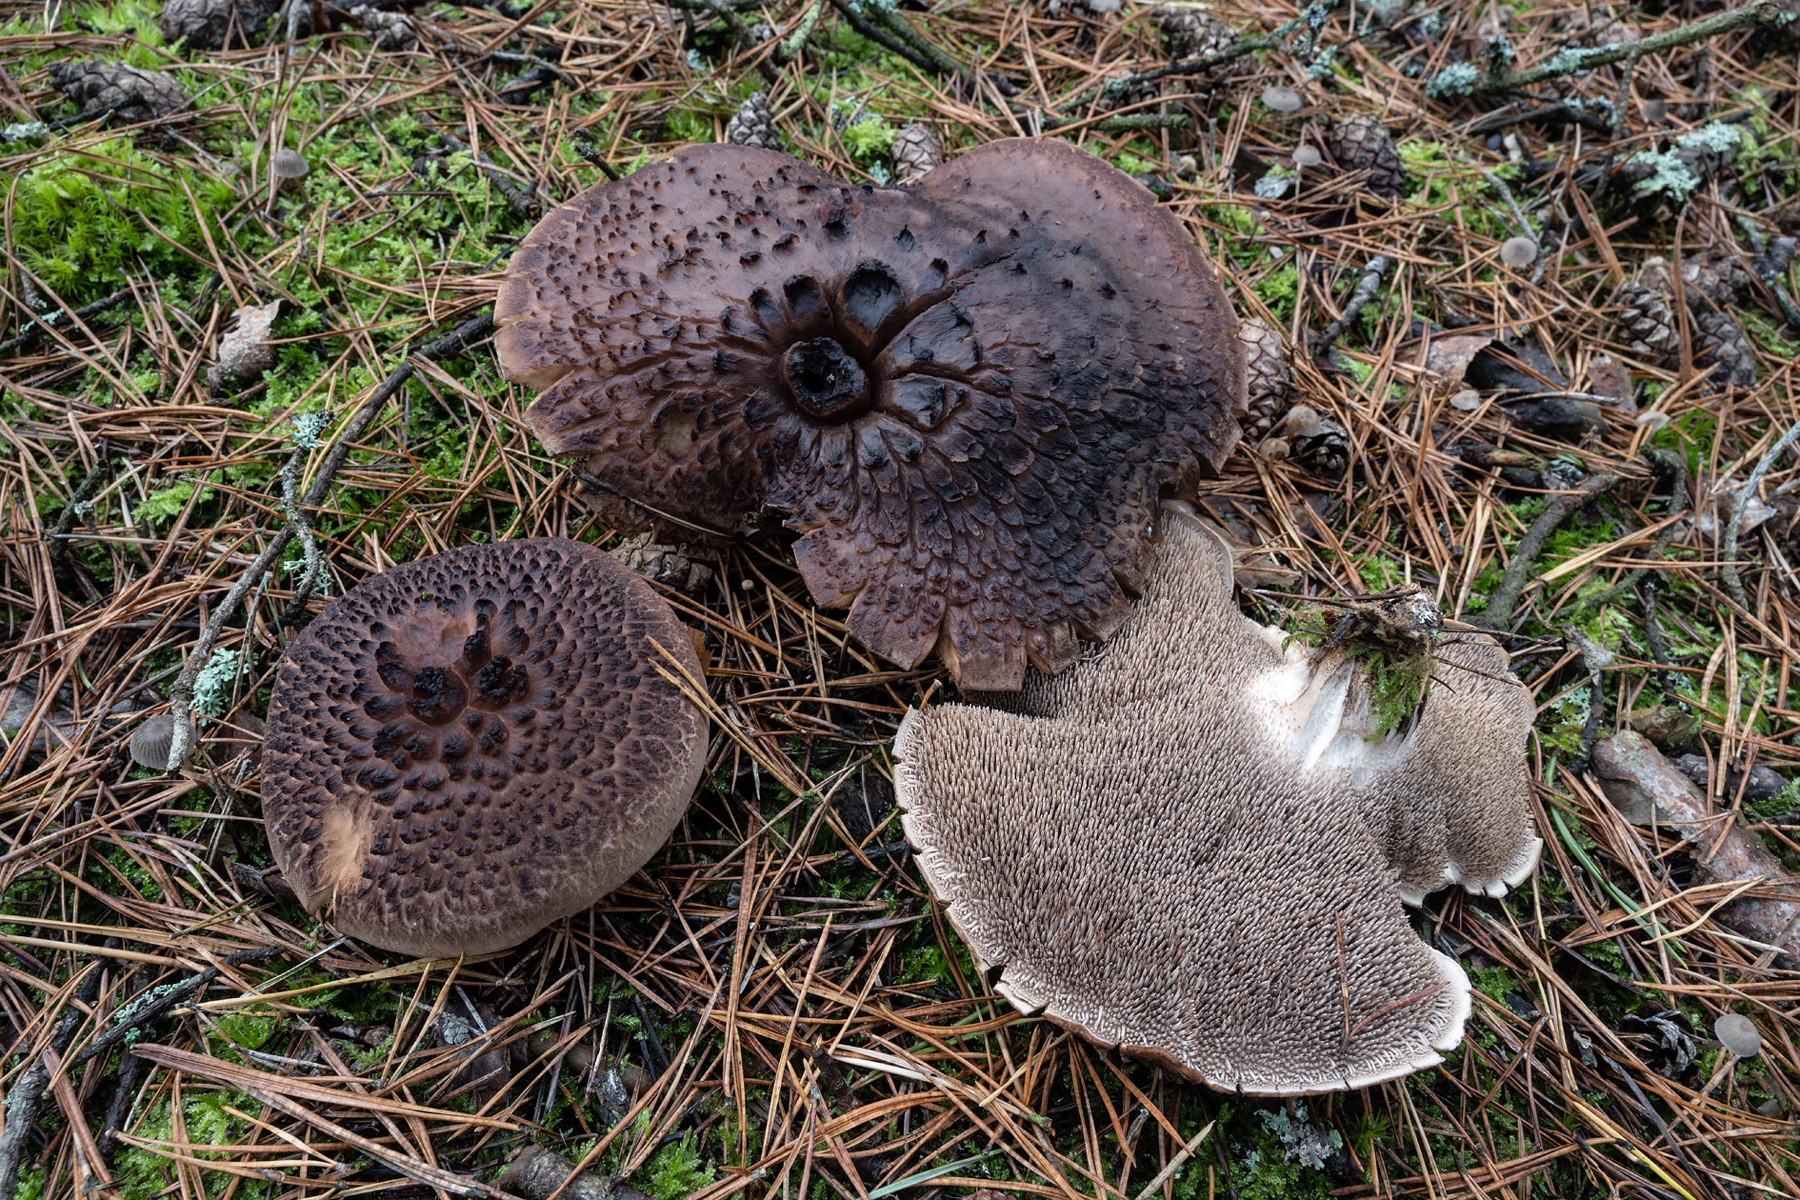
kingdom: Fungi
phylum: Basidiomycota
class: Agaricomycetes
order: Thelephorales
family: Bankeraceae
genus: Sarcodon
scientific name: Sarcodon squamosus
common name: småskællet kødpigsvamp
